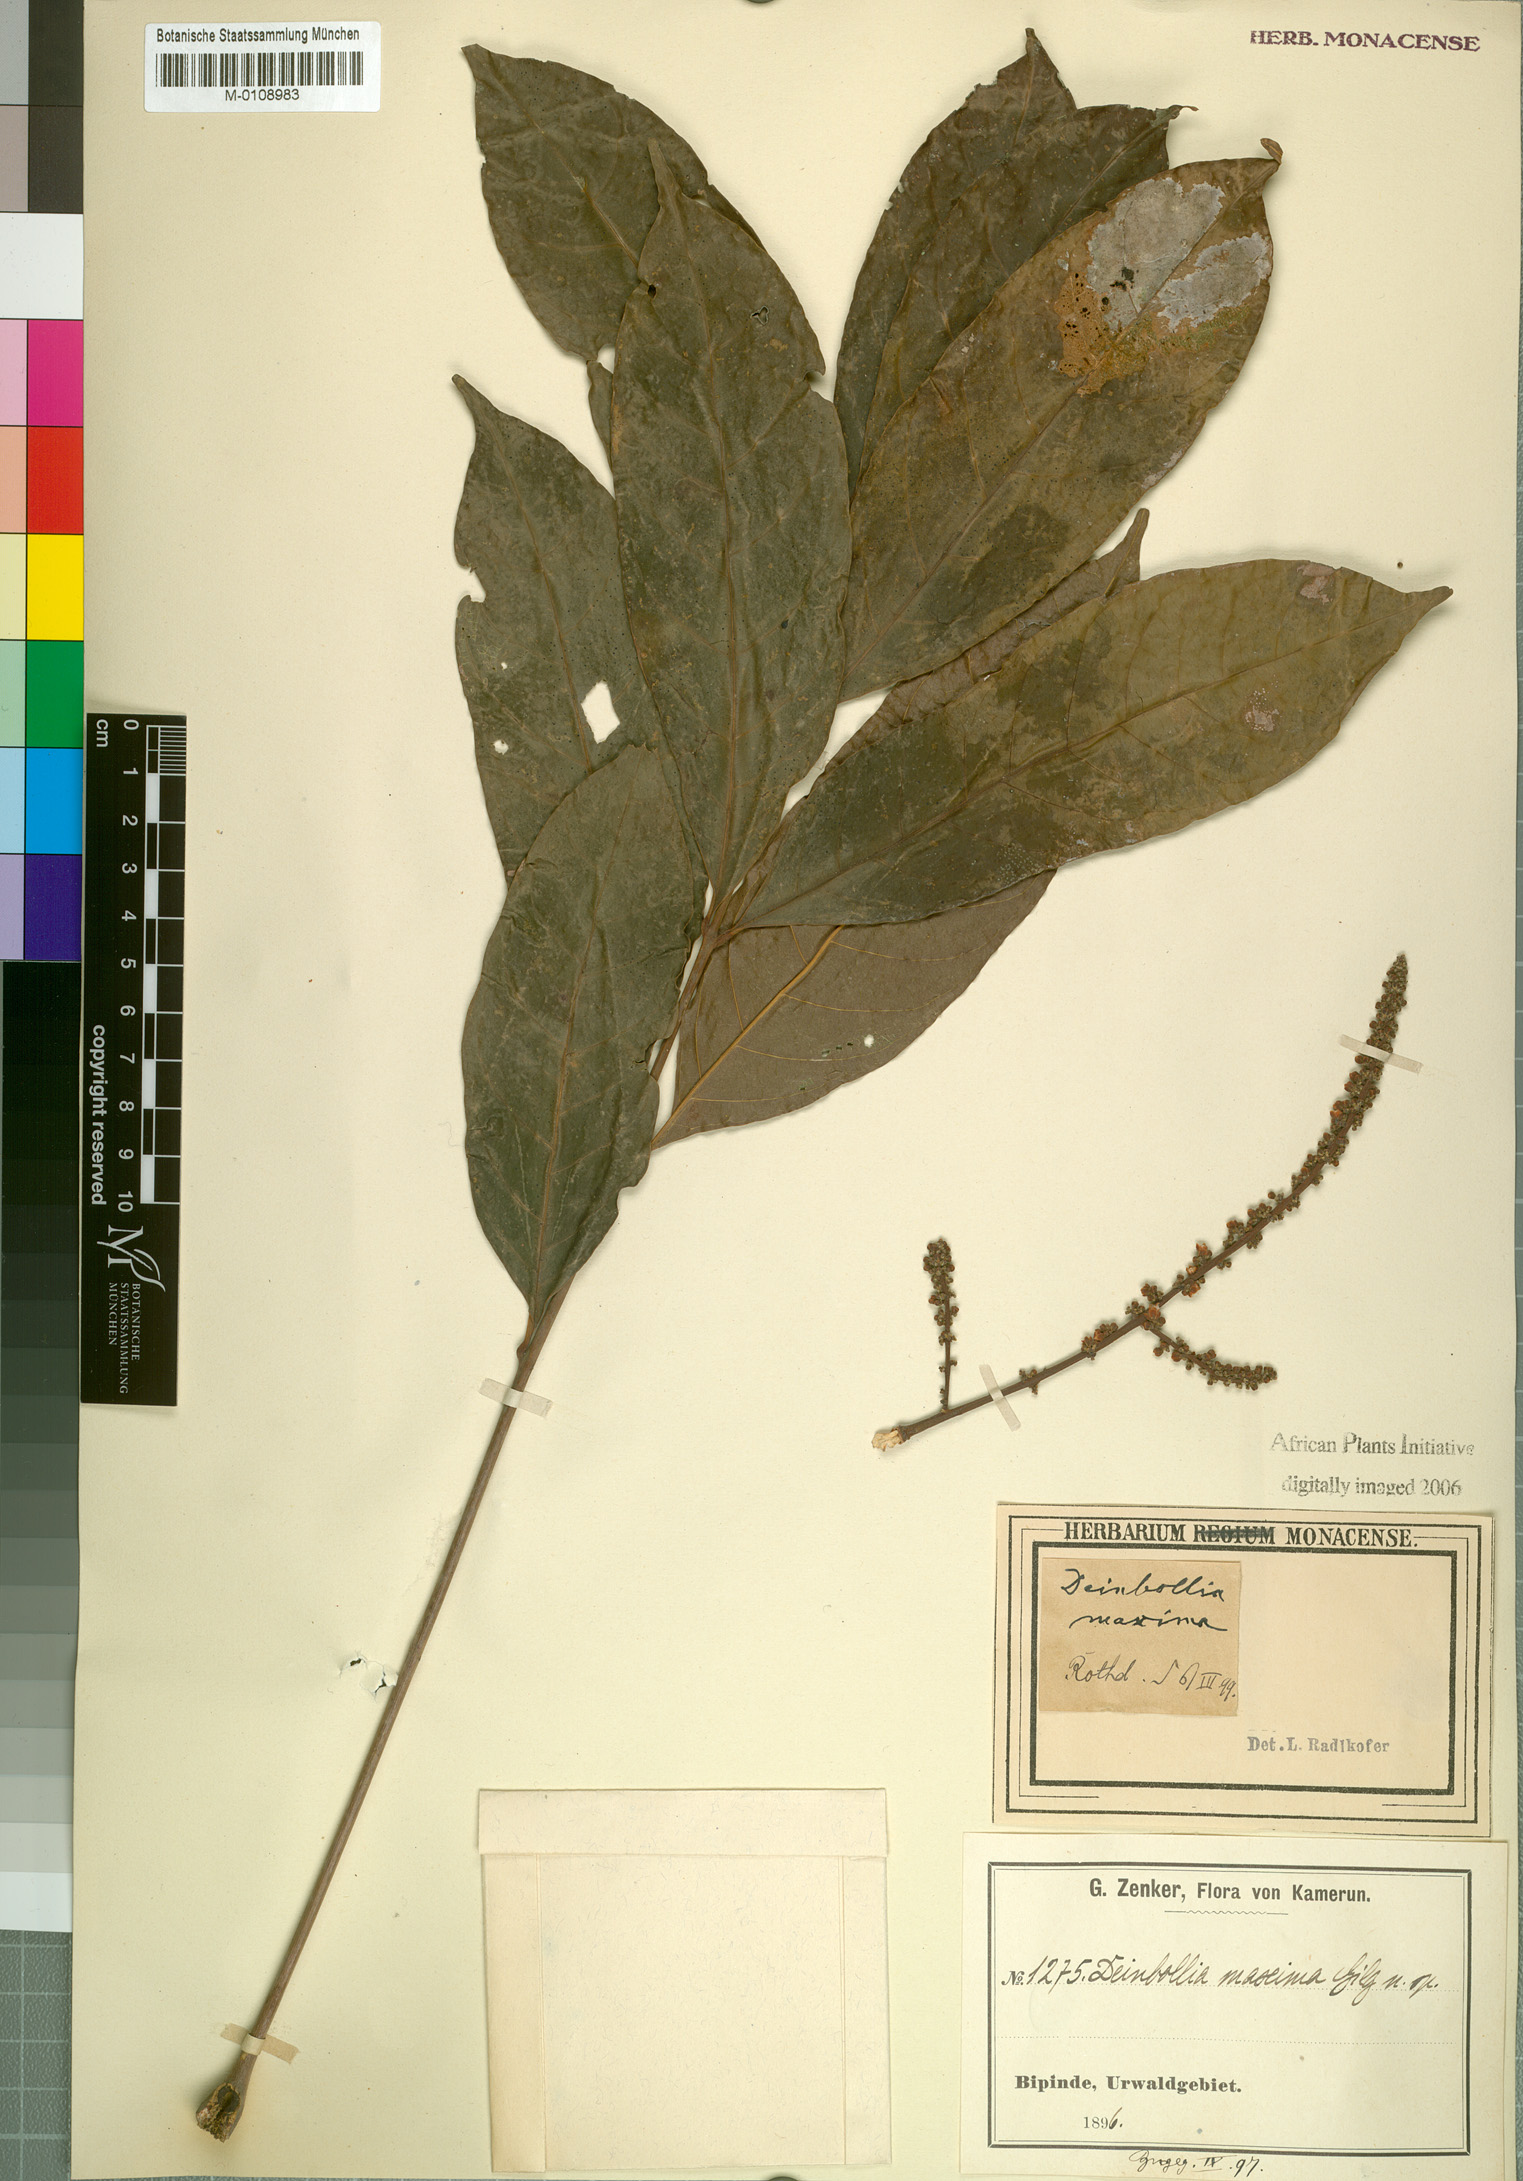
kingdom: Plantae
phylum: Tracheophyta
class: Magnoliopsida
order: Sapindales
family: Sapindaceae
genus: Deinbollia
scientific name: Deinbollia maxima
